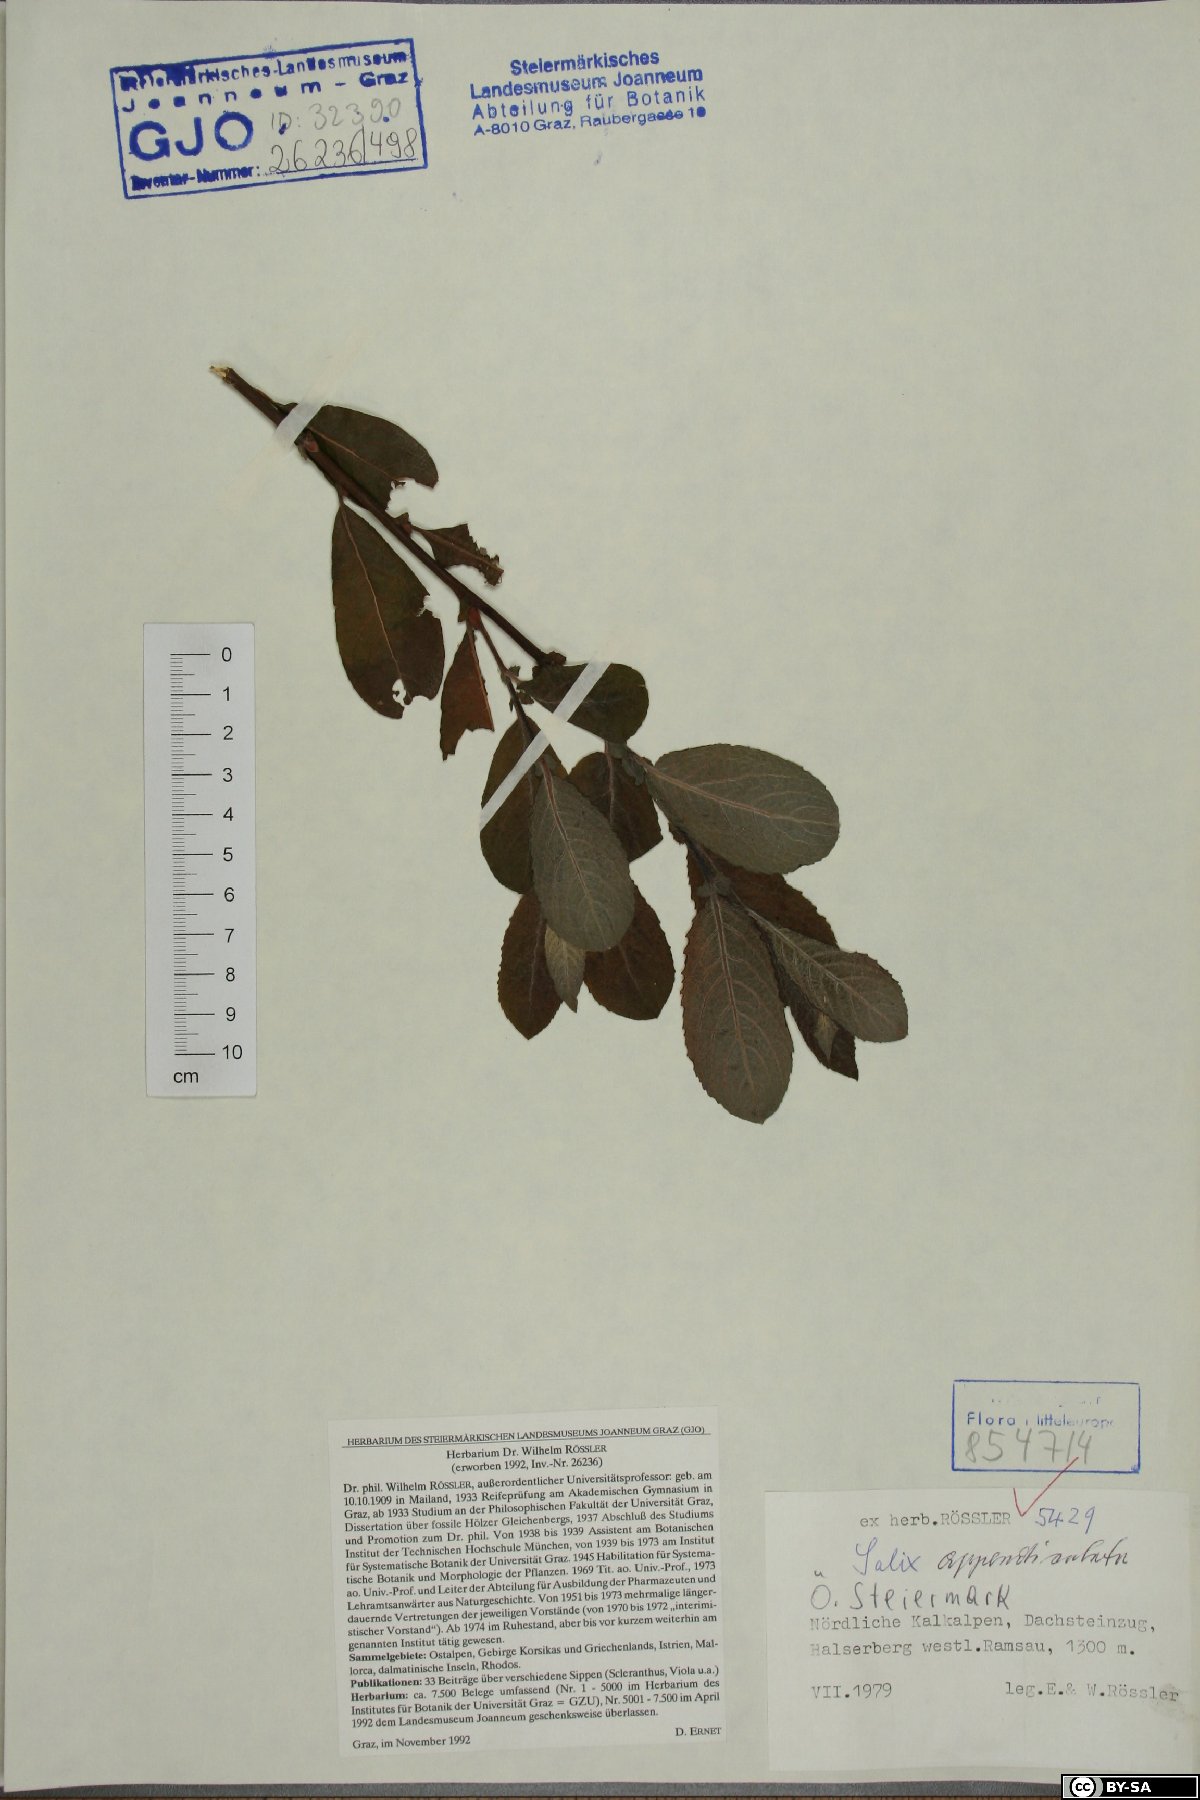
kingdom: Plantae
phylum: Tracheophyta
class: Magnoliopsida
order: Malpighiales
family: Salicaceae
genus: Salix
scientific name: Salix appendiculata
